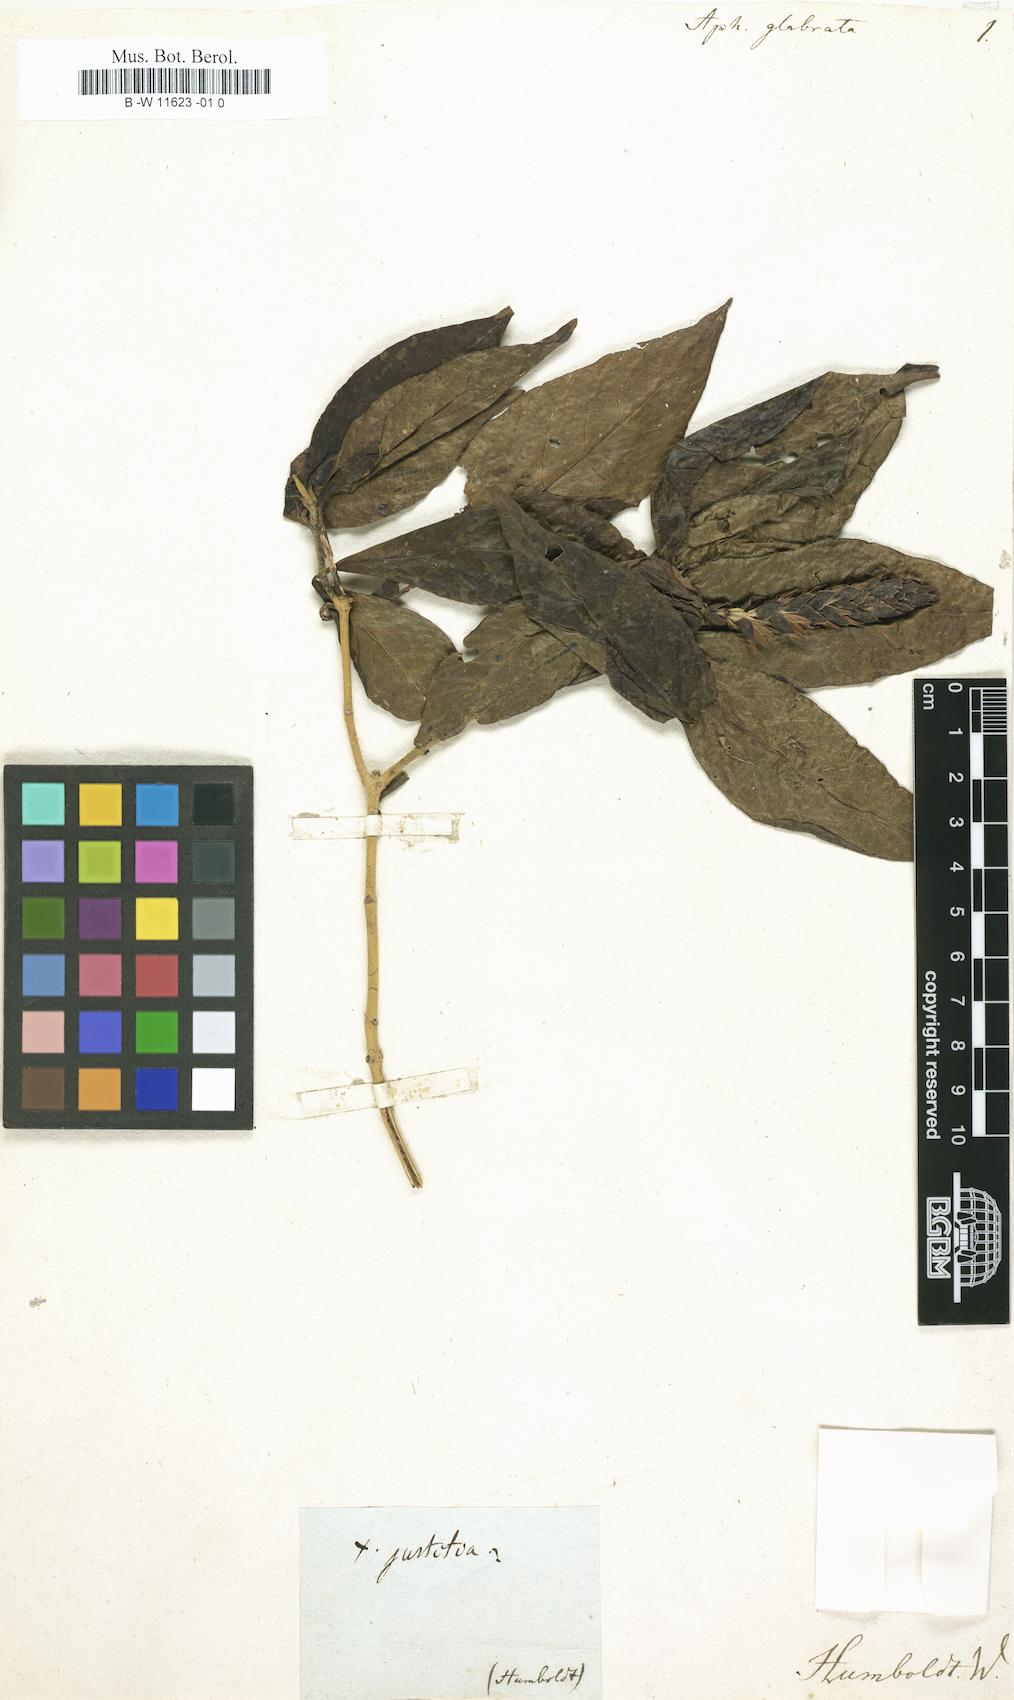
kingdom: Plantae
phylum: Tracheophyta
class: Magnoliopsida
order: Lamiales
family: Acanthaceae
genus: Aphelandra
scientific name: Aphelandra glabrata
